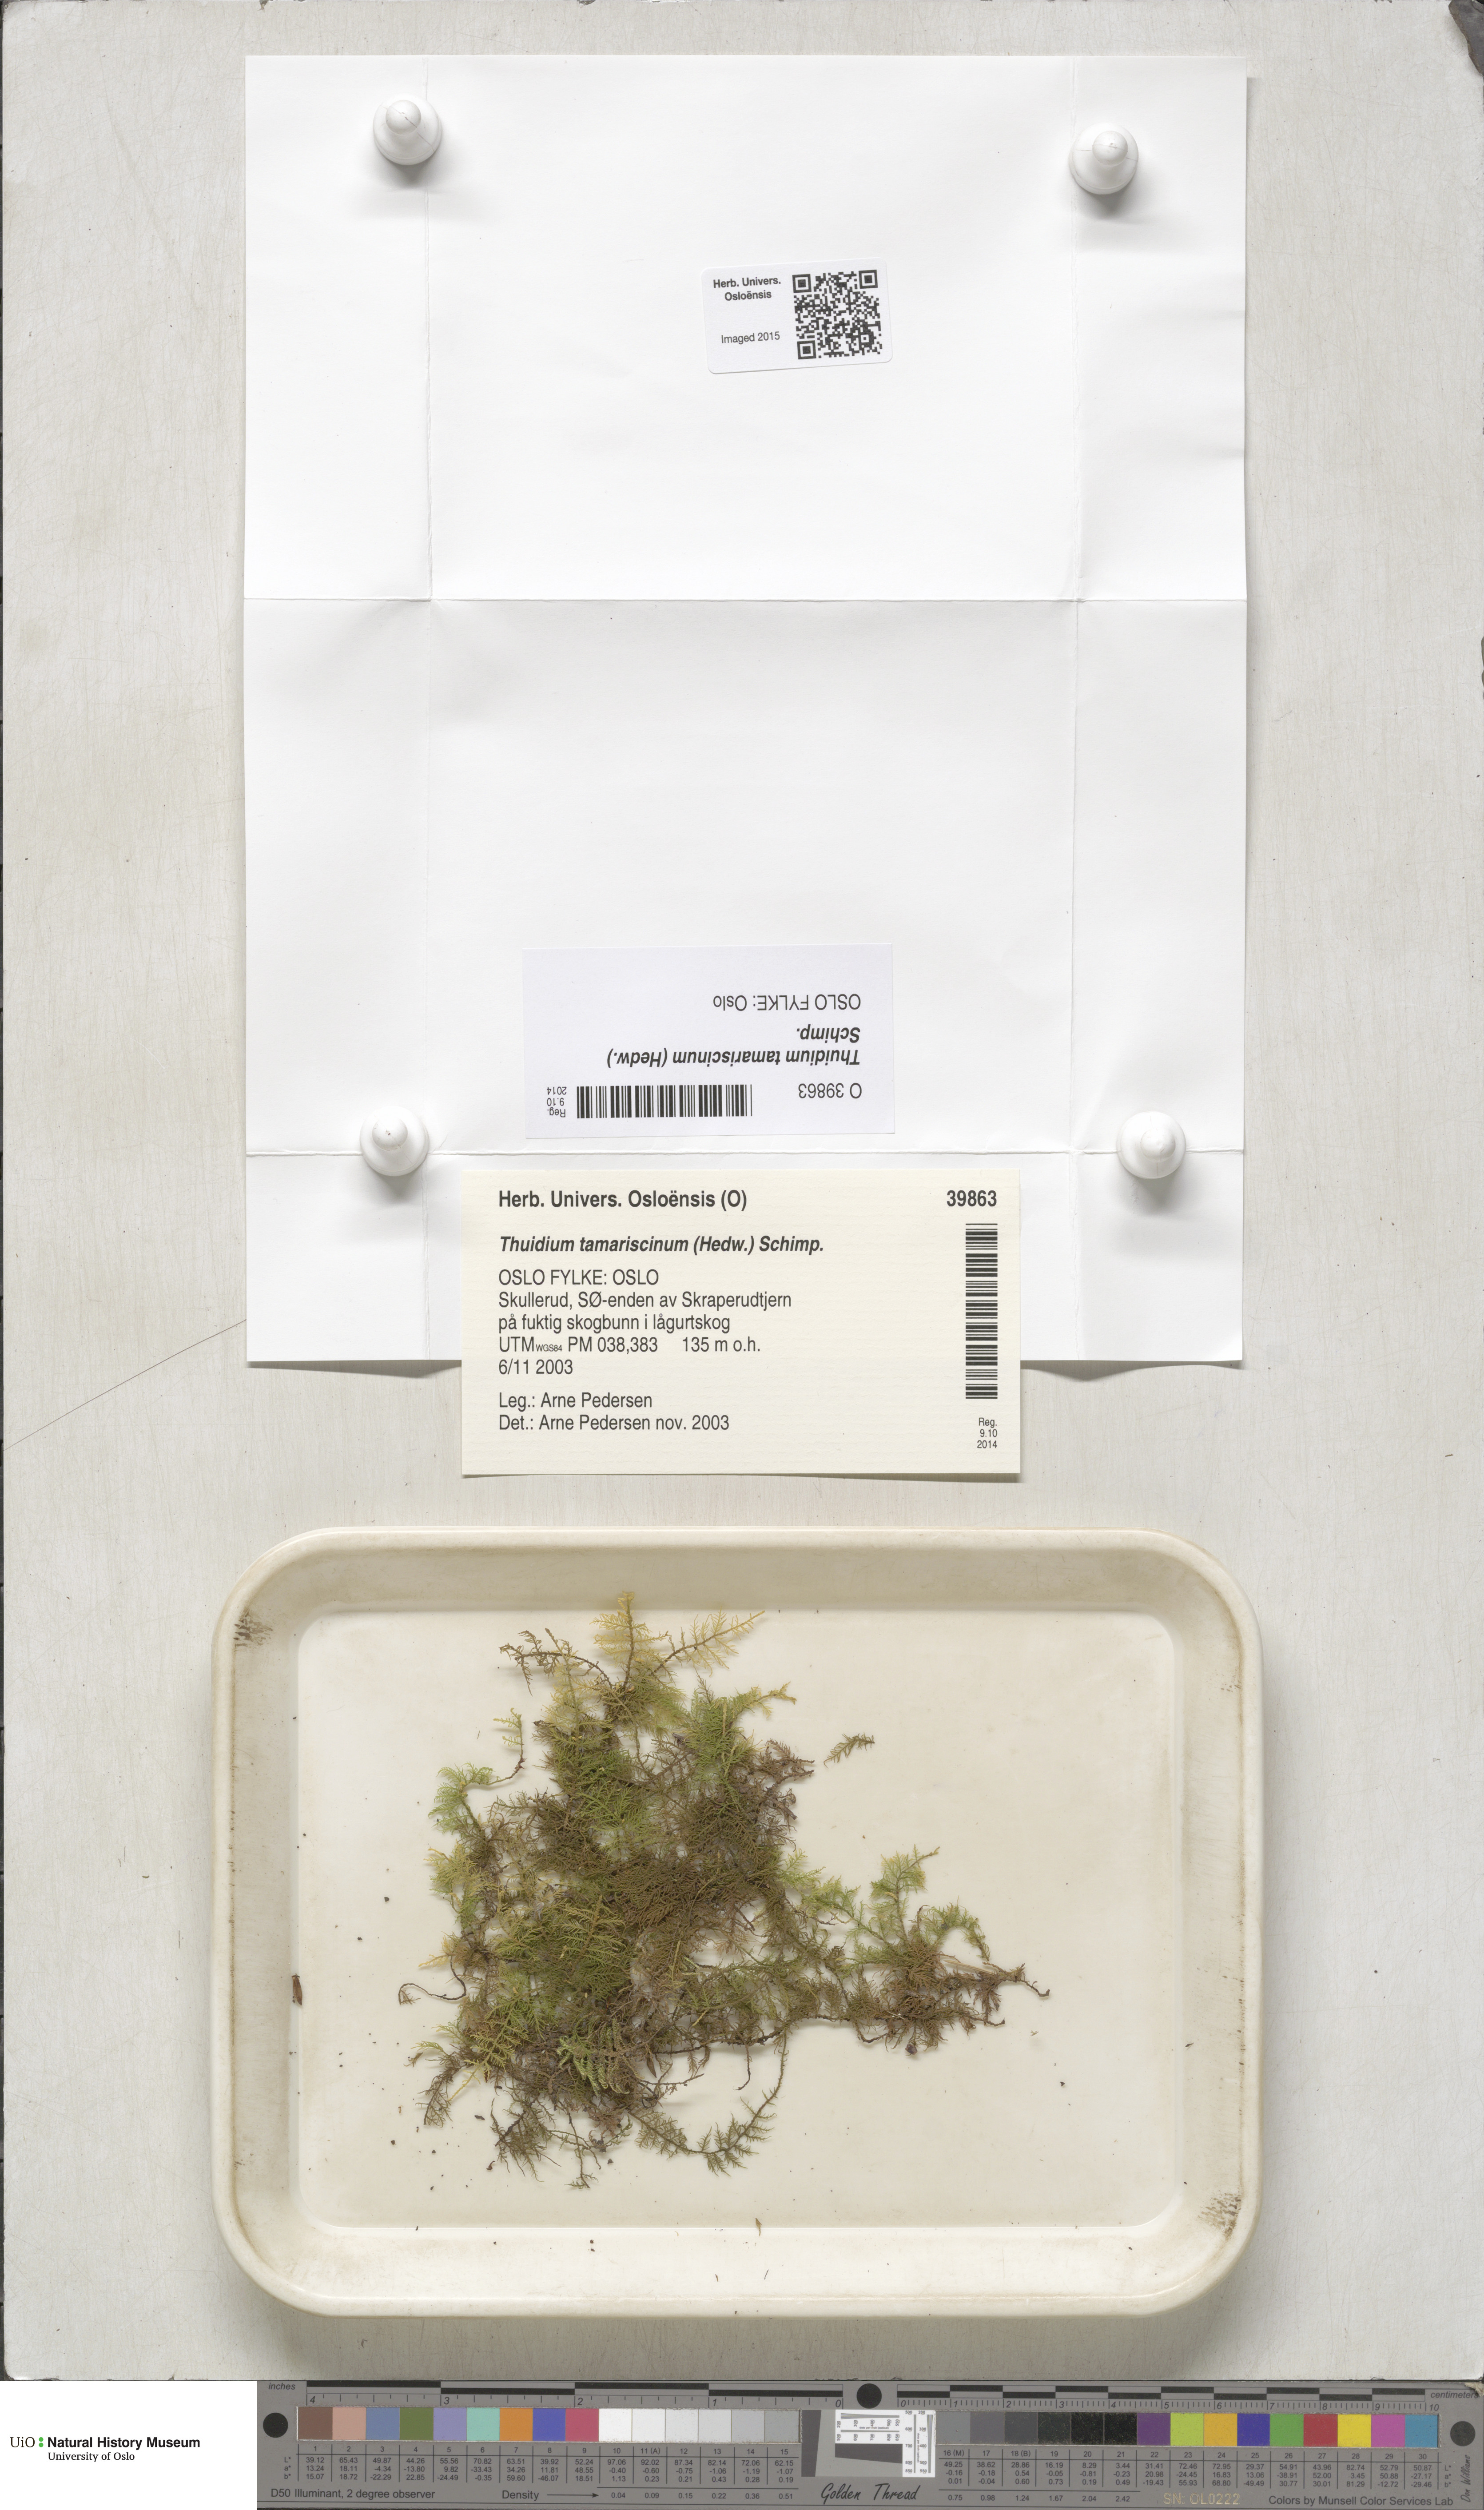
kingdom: Plantae
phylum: Bryophyta
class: Bryopsida
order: Hypnales
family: Thuidiaceae
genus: Thuidium
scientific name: Thuidium tamariscinum
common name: Common tamarisk-moss
